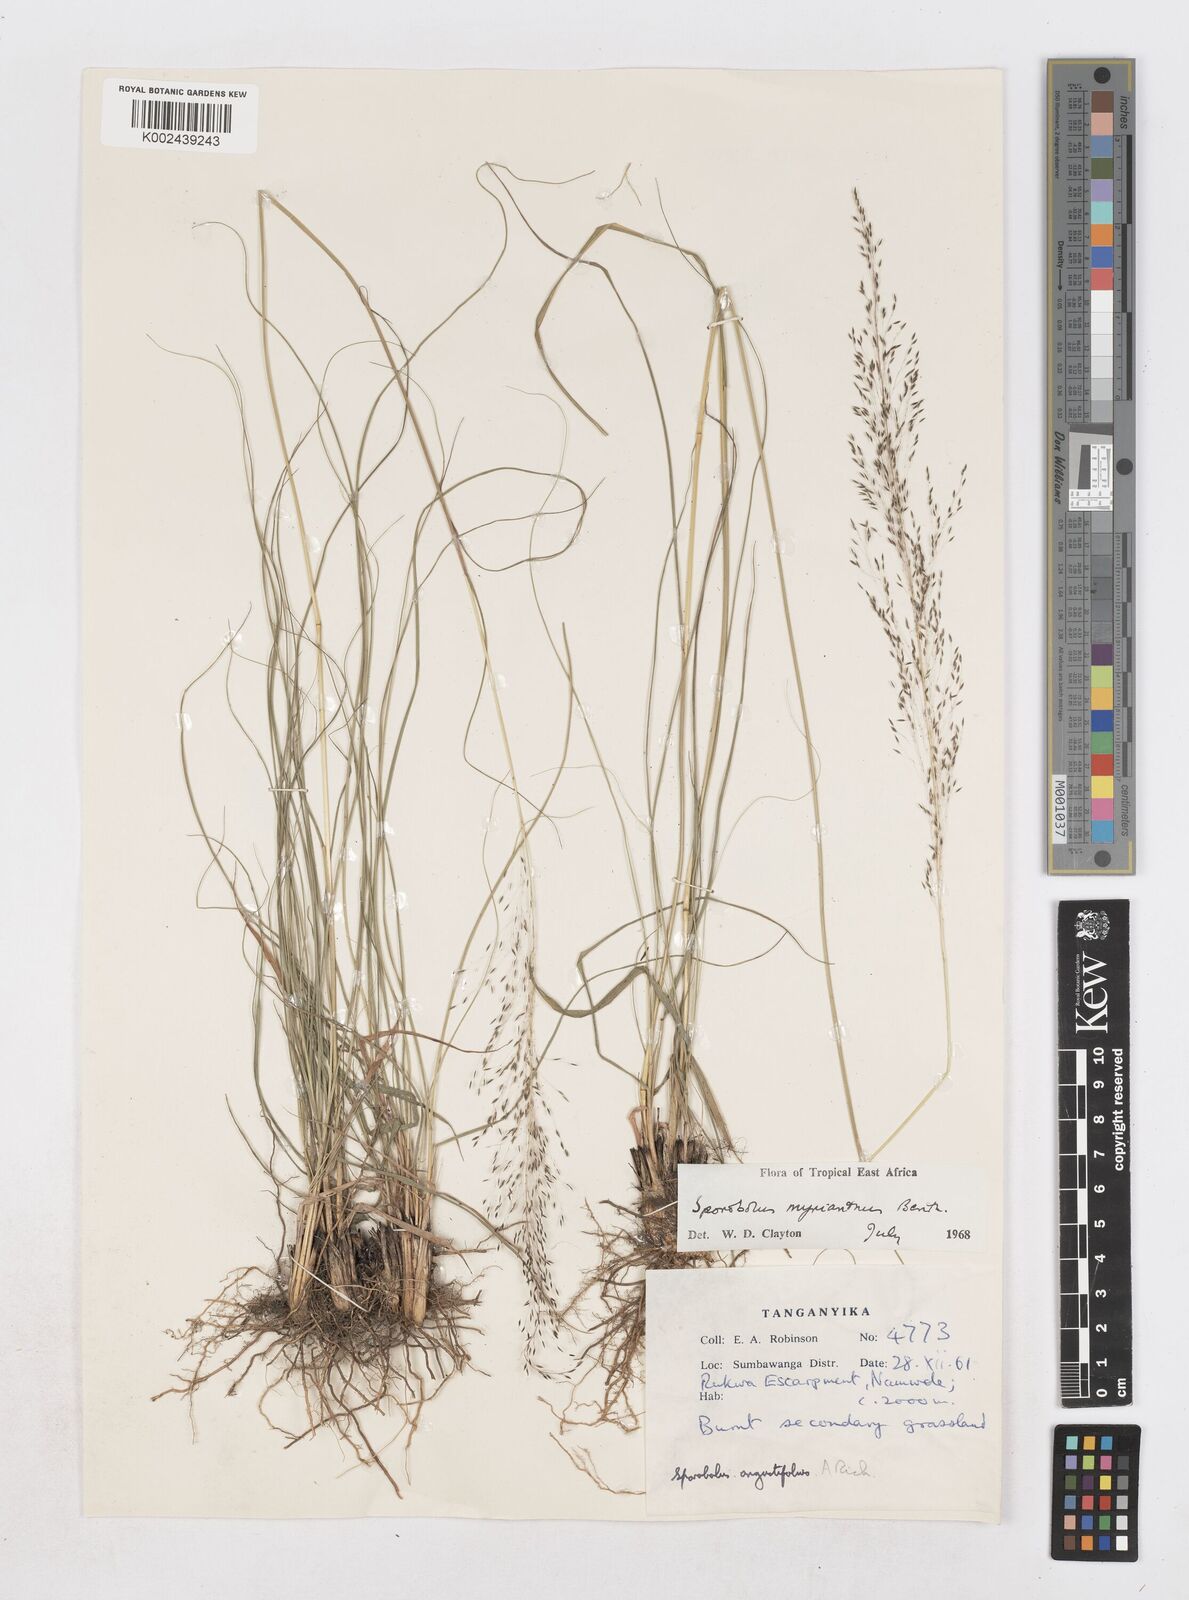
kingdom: Plantae
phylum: Tracheophyta
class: Liliopsida
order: Poales
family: Poaceae
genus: Sporobolus
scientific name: Sporobolus myrianthus
